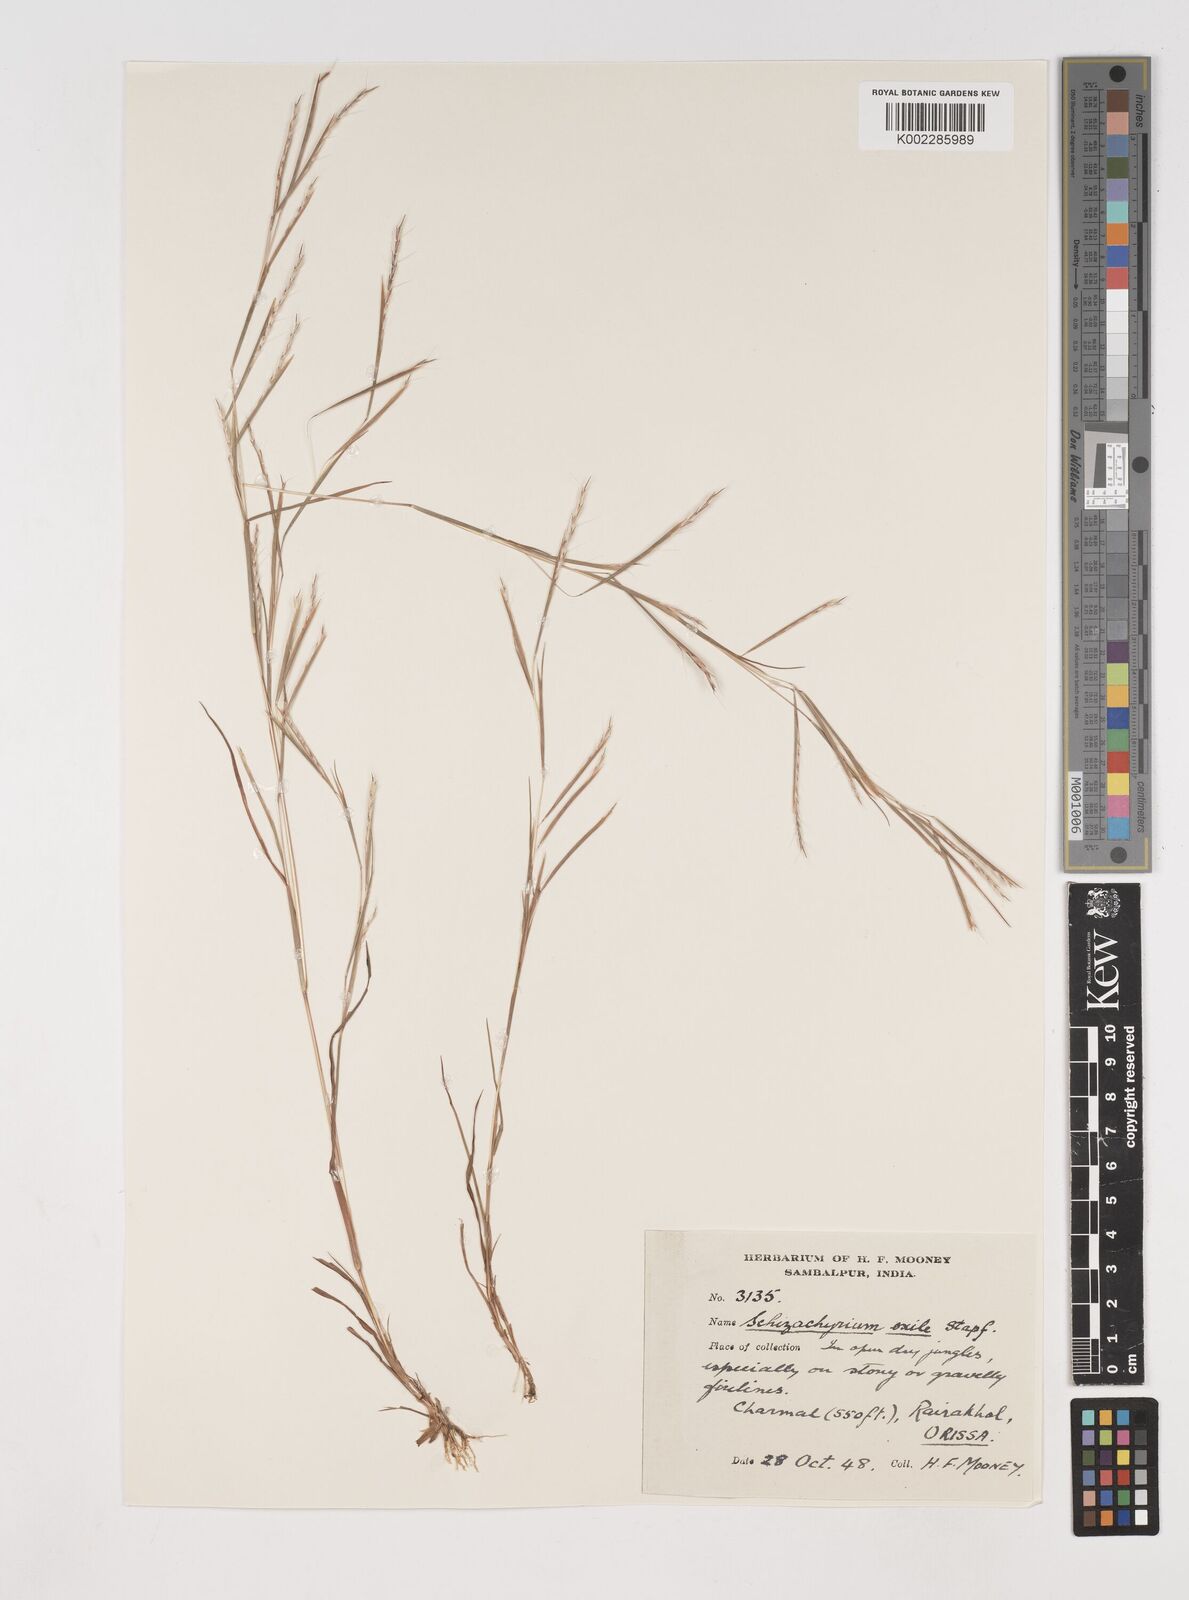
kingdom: Plantae
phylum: Tracheophyta
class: Liliopsida
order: Poales
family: Poaceae
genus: Schizachyrium
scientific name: Schizachyrium exile
